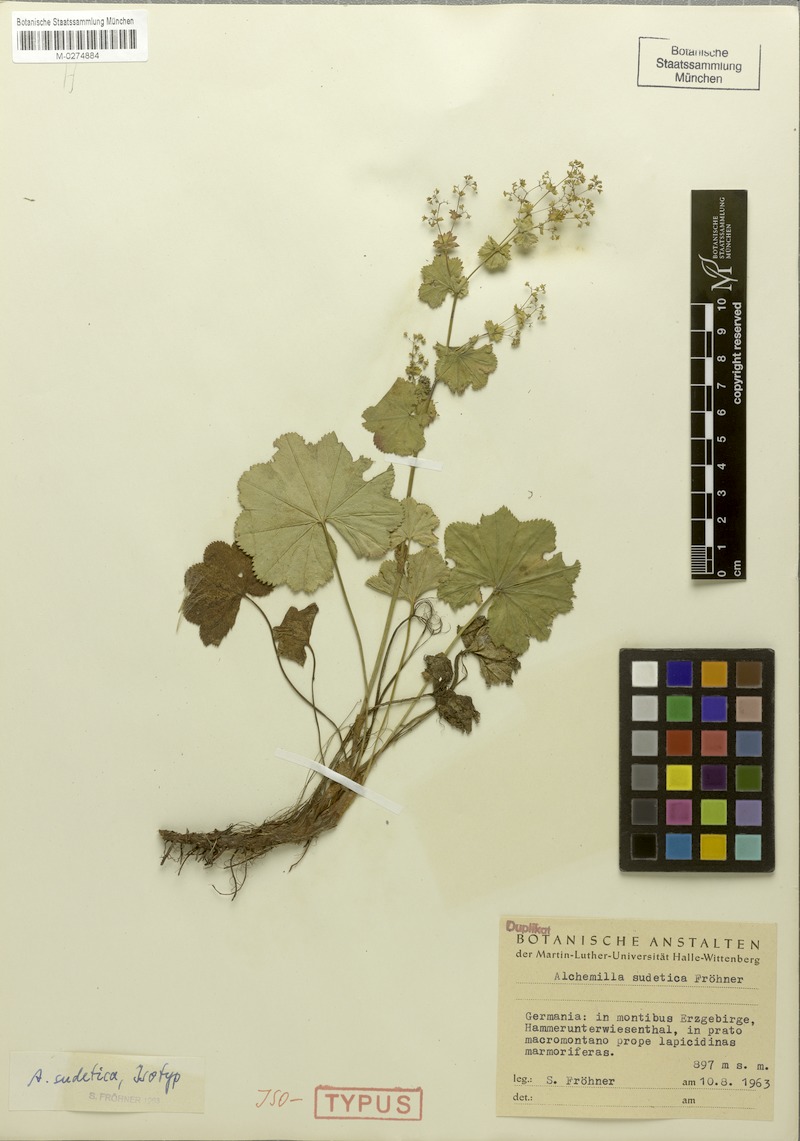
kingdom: Plantae
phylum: Tracheophyta
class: Magnoliopsida
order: Rosales
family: Rosaceae
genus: Alchemilla
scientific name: Alchemilla reniformis
